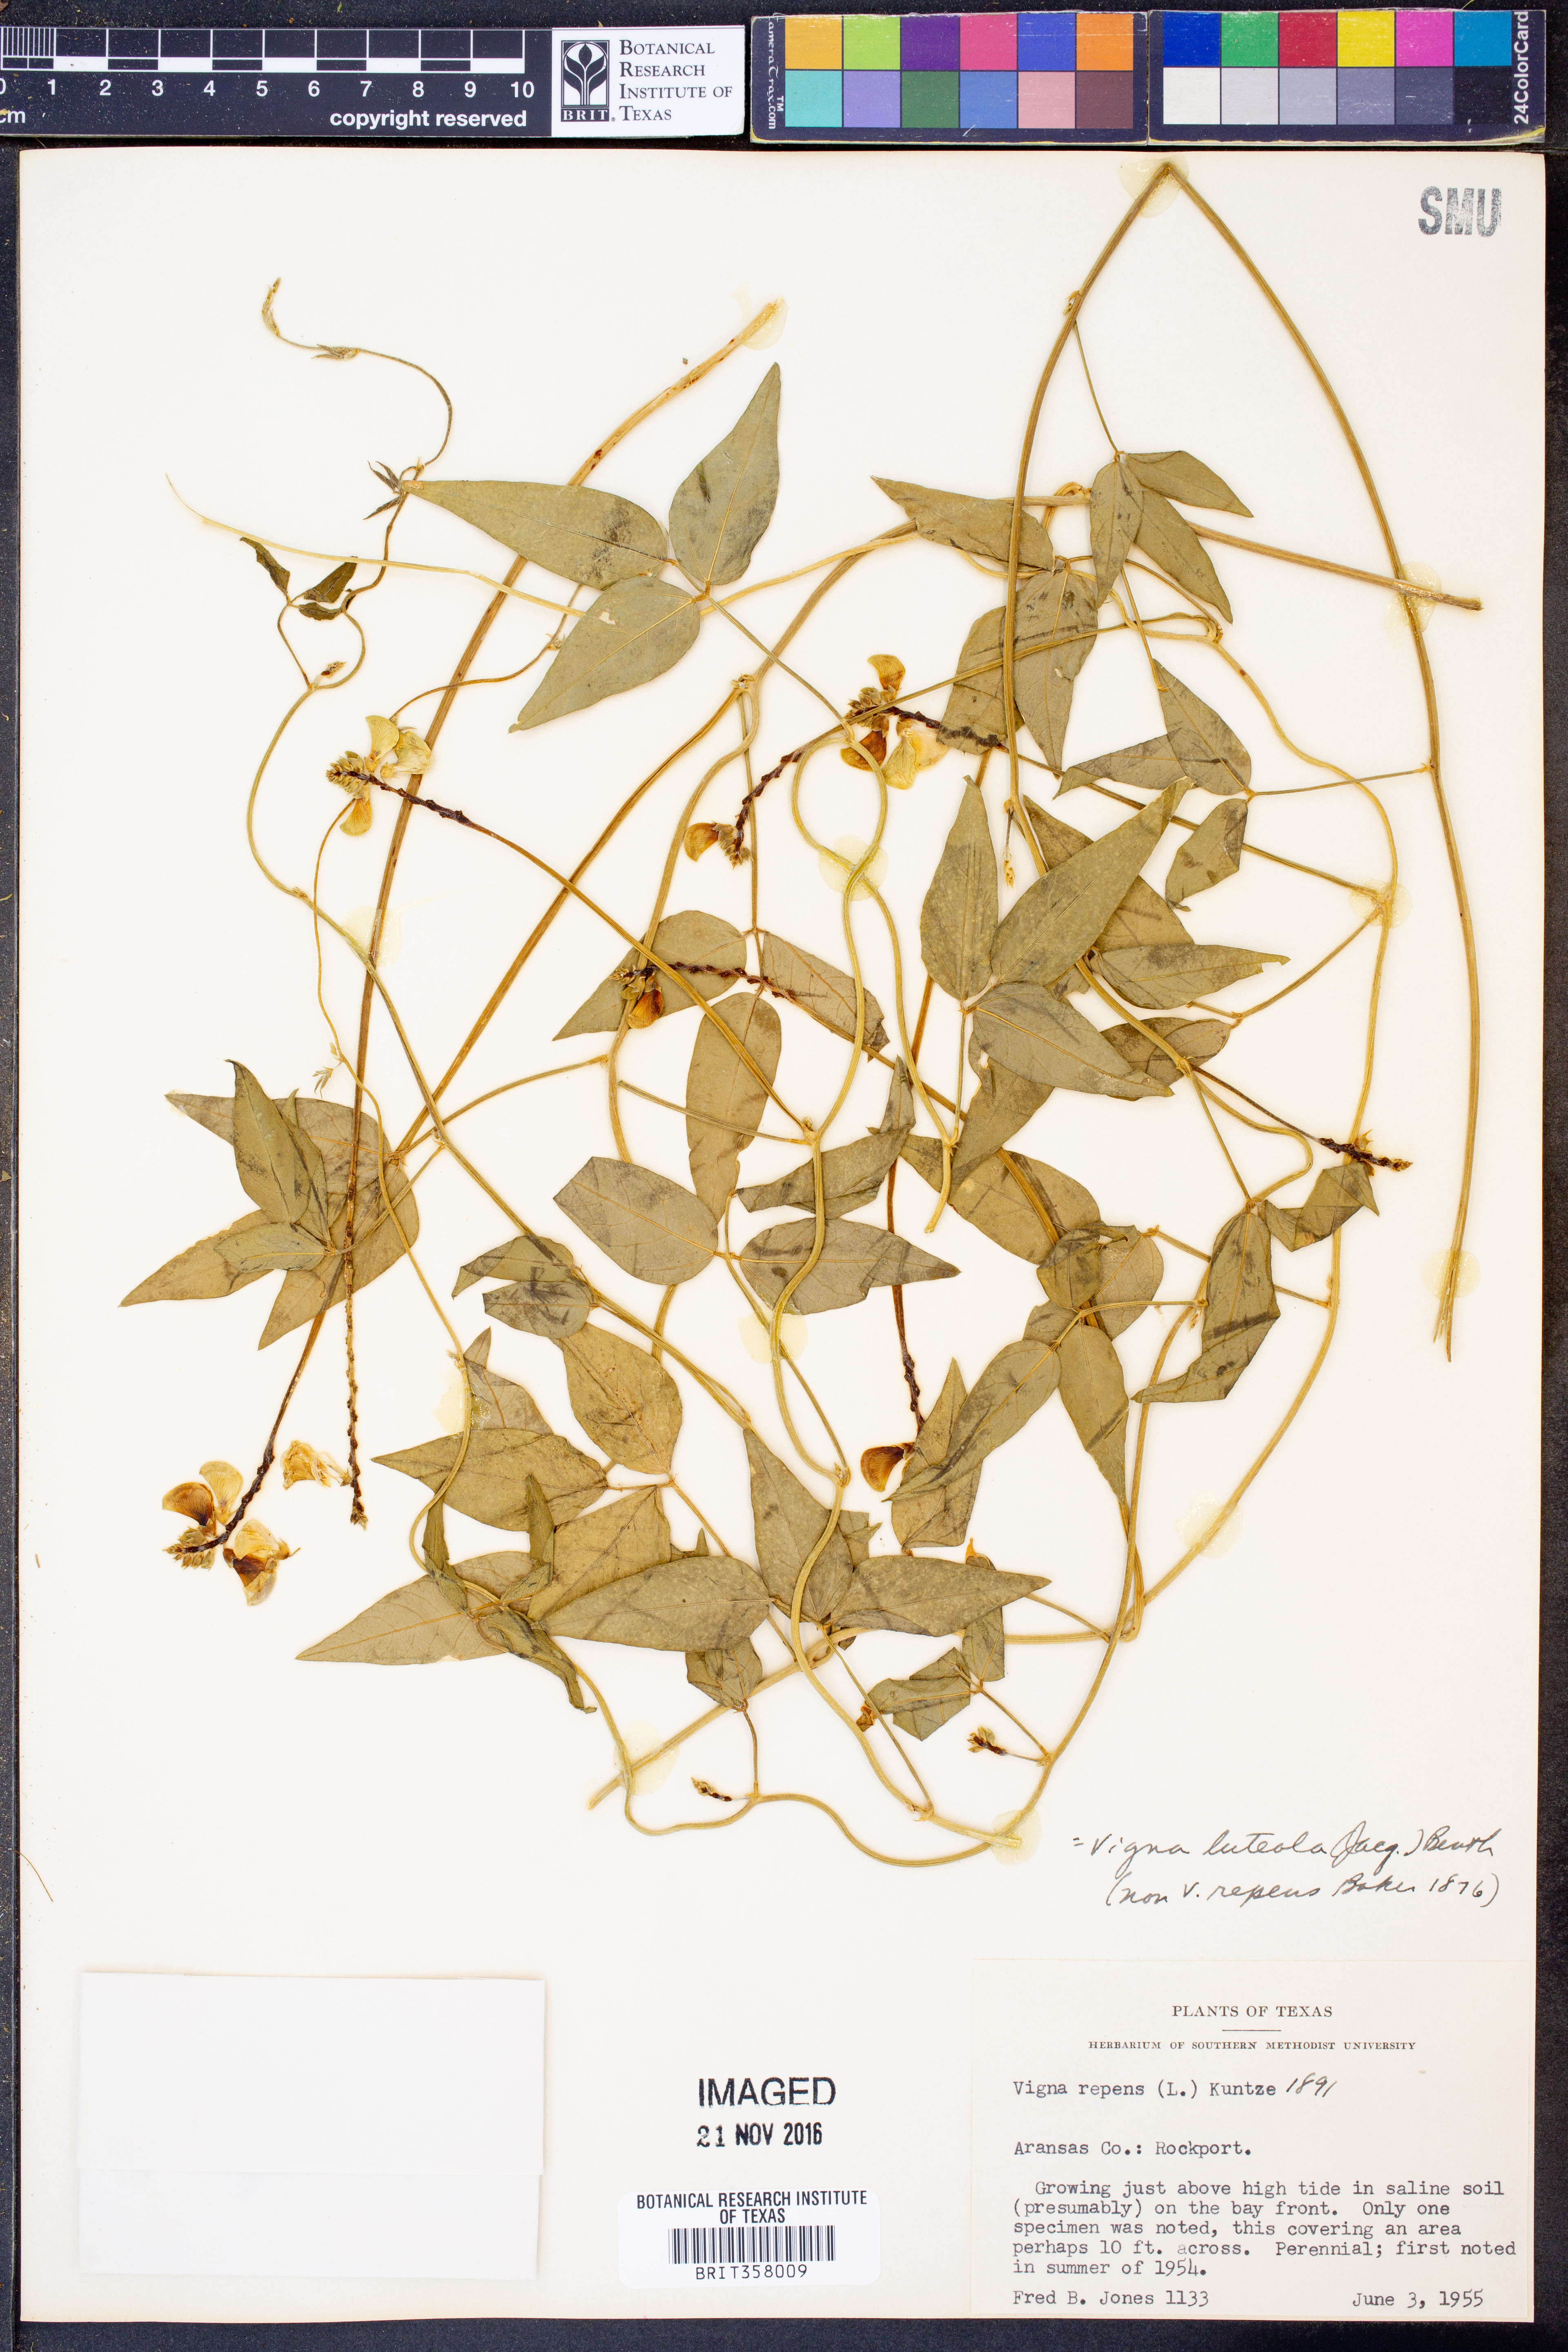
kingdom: Plantae
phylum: Tracheophyta
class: Magnoliopsida
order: Fabales
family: Fabaceae
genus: Vigna
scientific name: Vigna luteola
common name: Hairypod cowpea
